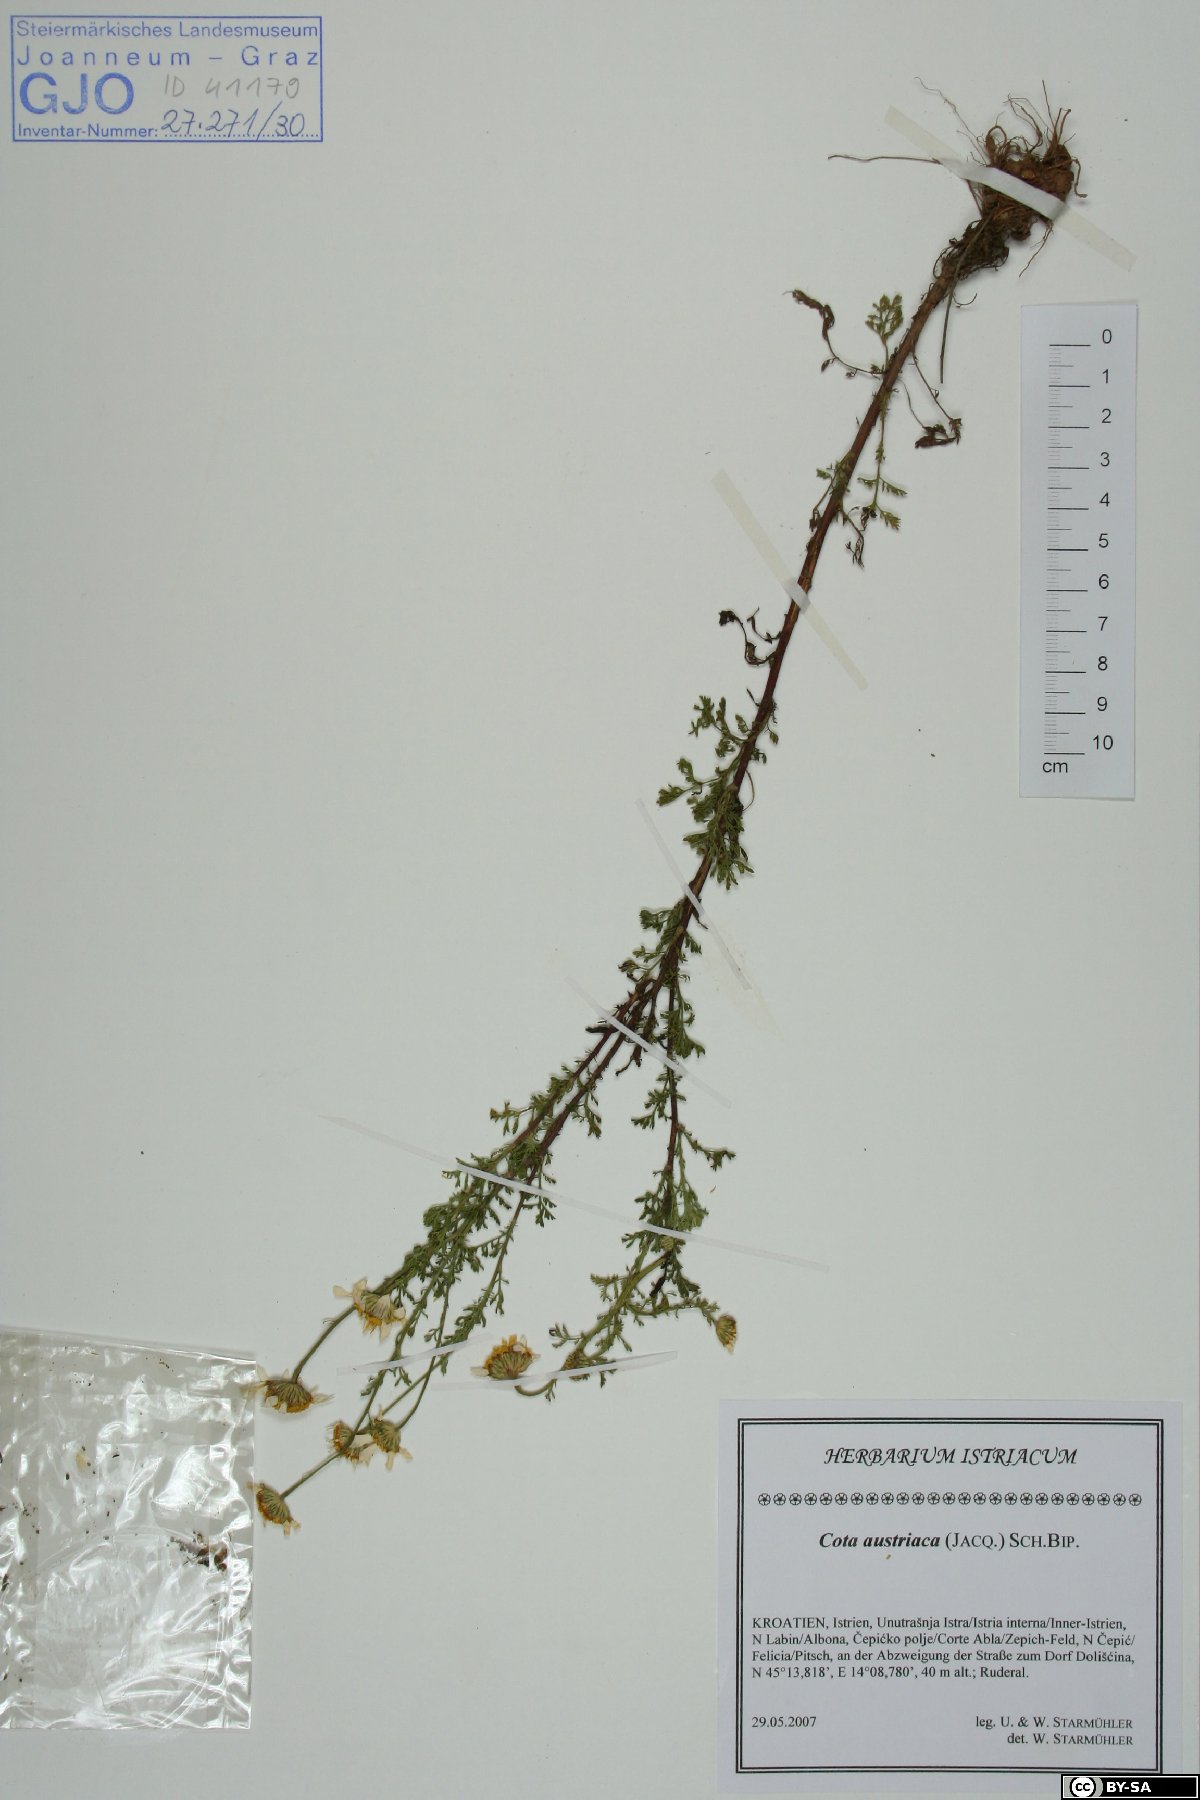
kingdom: Plantae
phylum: Tracheophyta
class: Magnoliopsida
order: Asterales
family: Asteraceae
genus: Cota
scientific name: Cota austriaca
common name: Austrian chamomile
